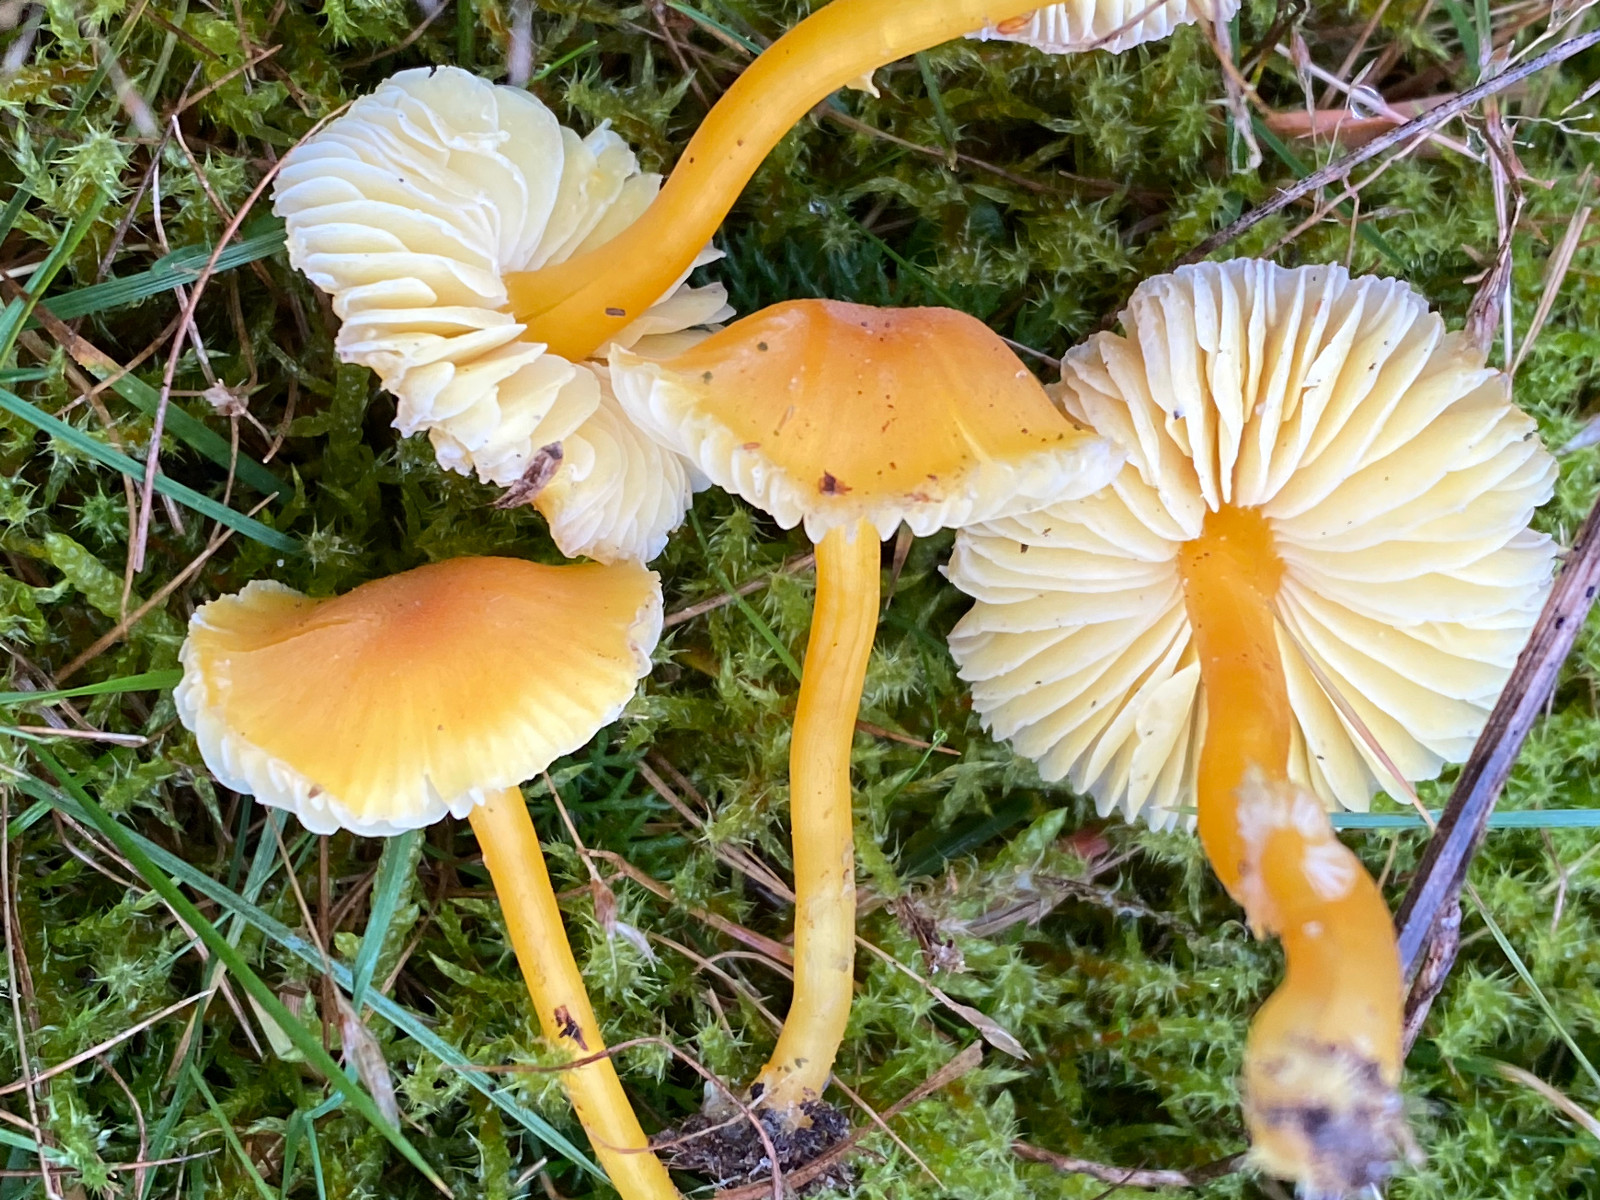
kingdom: Fungi
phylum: Basidiomycota
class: Agaricomycetes
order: Agaricales
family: Hygrophoraceae
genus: Hygrocybe
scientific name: Hygrocybe miniata
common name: mønje-vokshat
